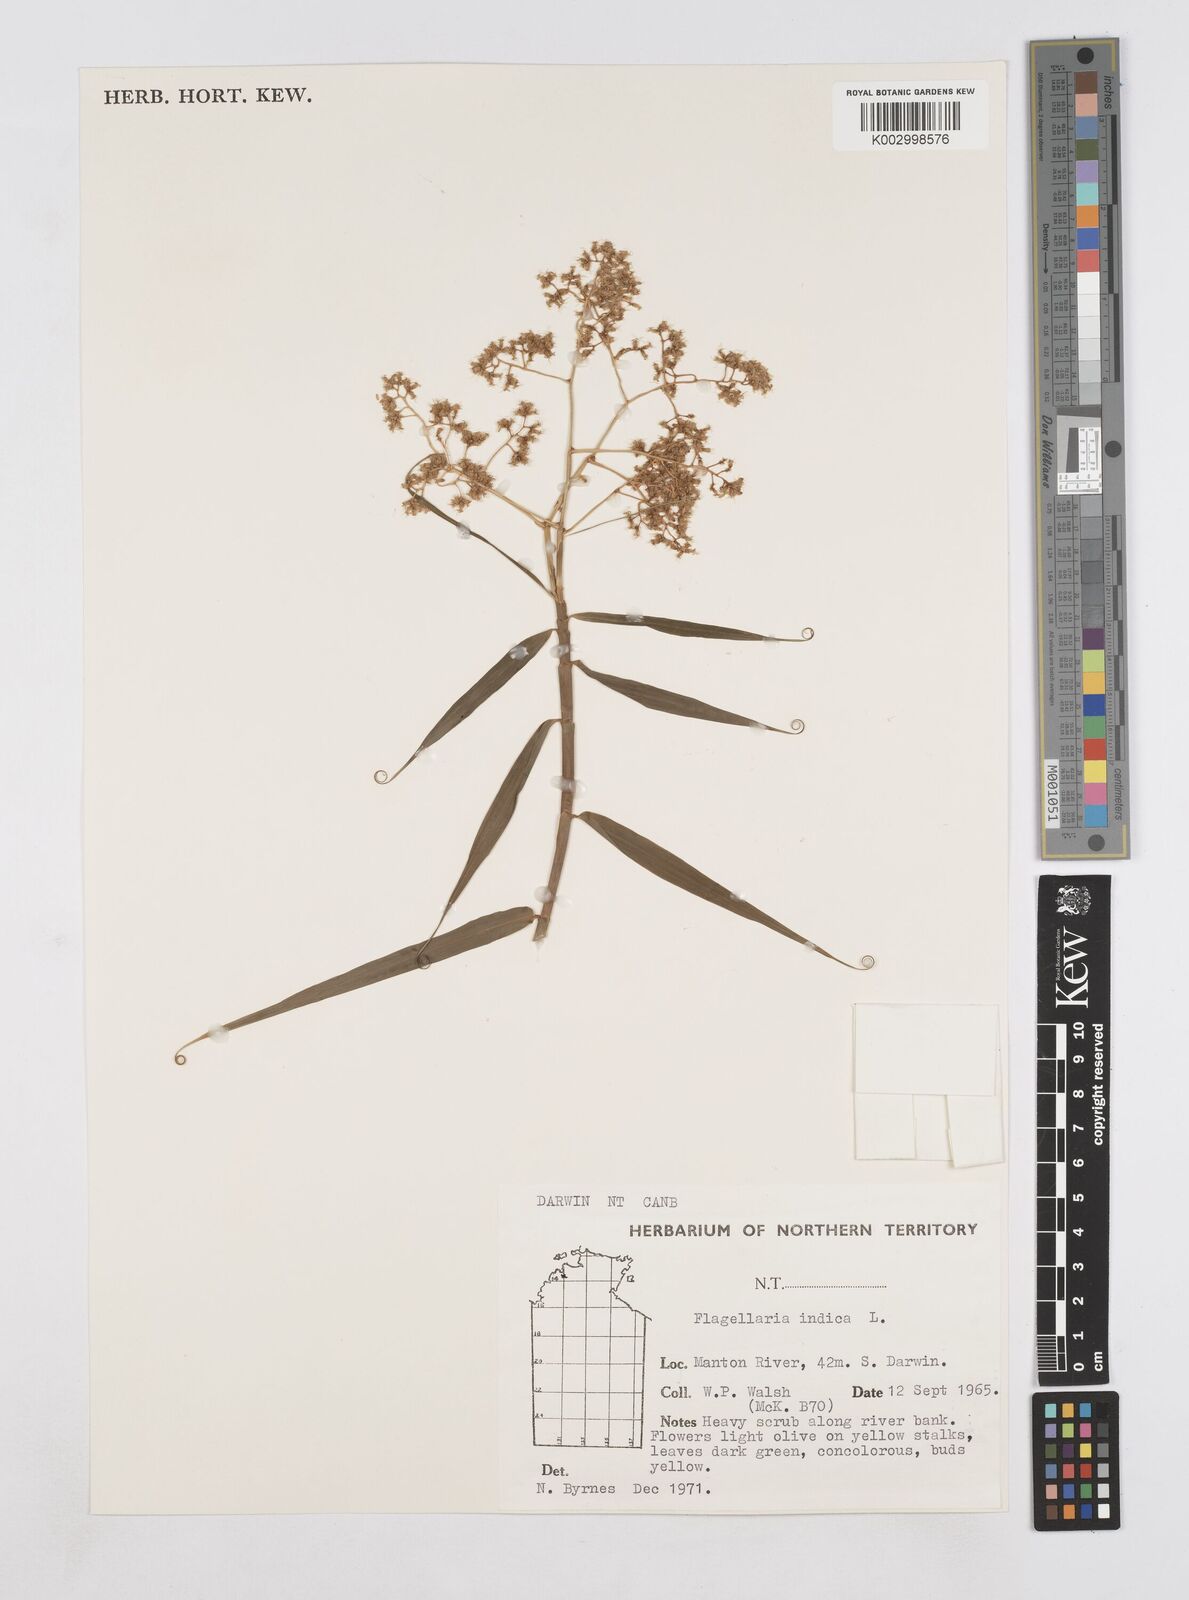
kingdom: Plantae
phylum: Tracheophyta
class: Liliopsida
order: Poales
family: Flagellariaceae
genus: Flagellaria
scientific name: Flagellaria indica
